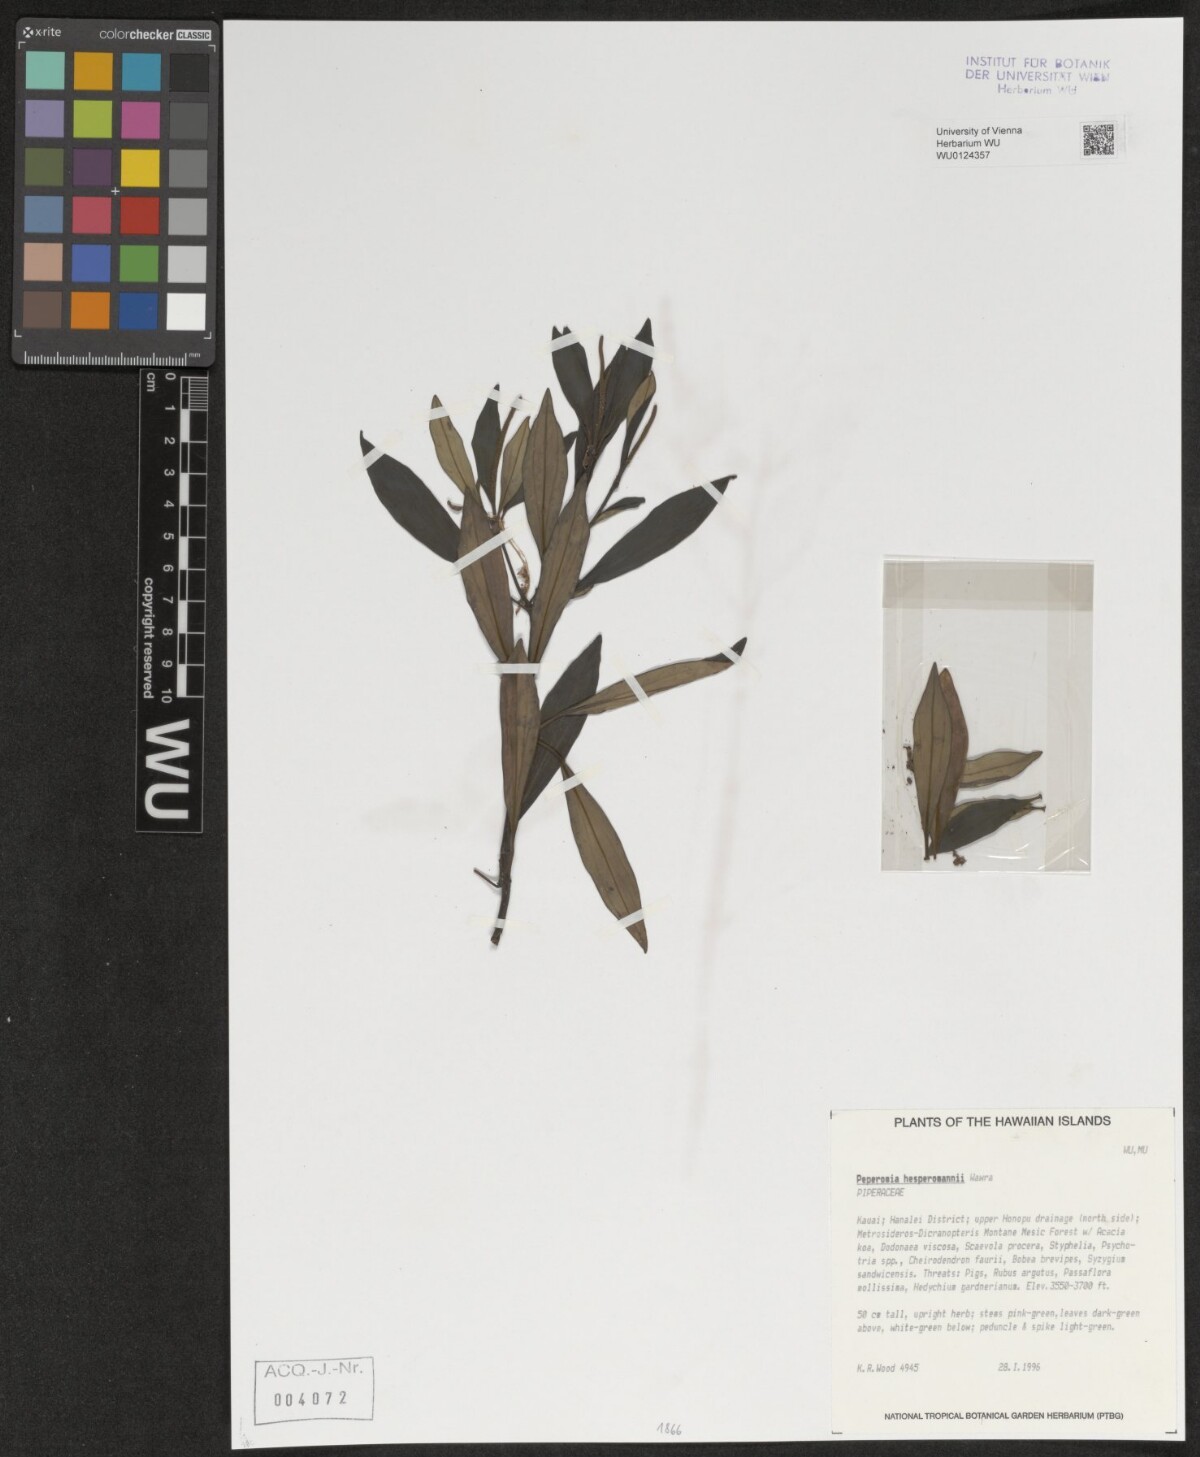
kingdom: Plantae
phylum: Tracheophyta
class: Magnoliopsida
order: Piperales
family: Piperaceae
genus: Peperomia
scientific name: Peperomia hesperomannii
